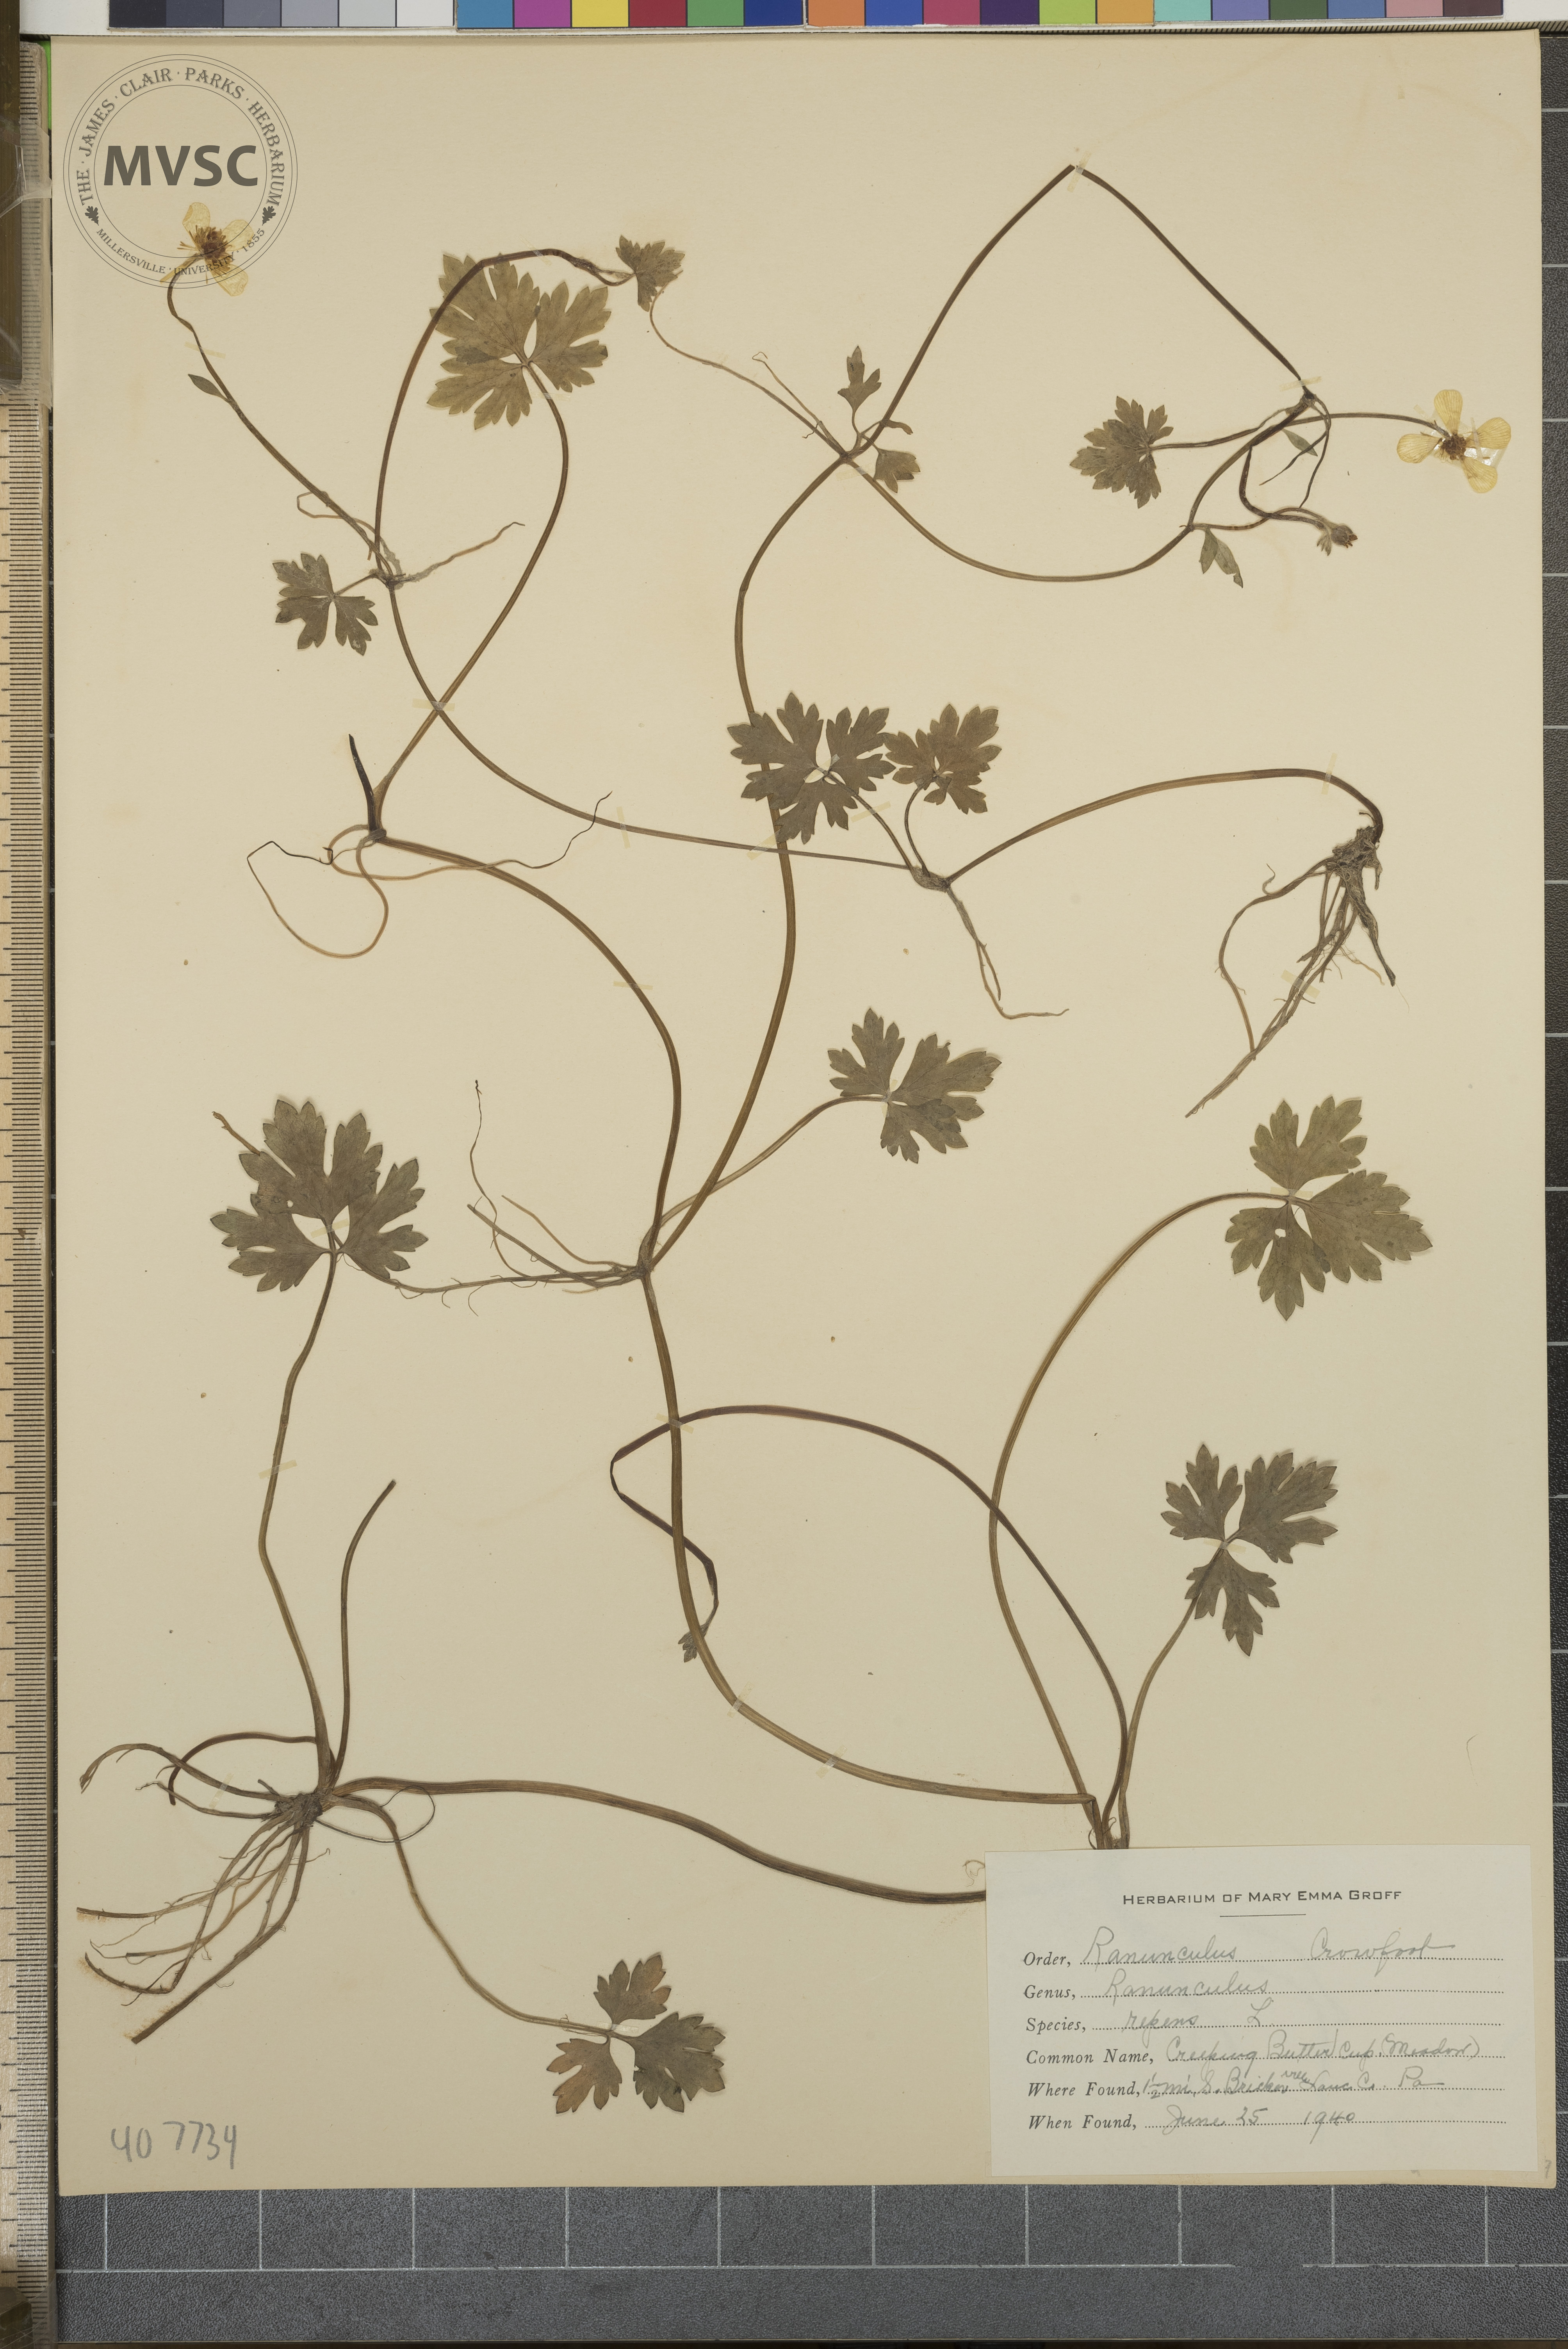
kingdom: Plantae
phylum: Tracheophyta
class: Magnoliopsida
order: Ranunculales
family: Ranunculaceae
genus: Ranunculus
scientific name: Ranunculus repens
